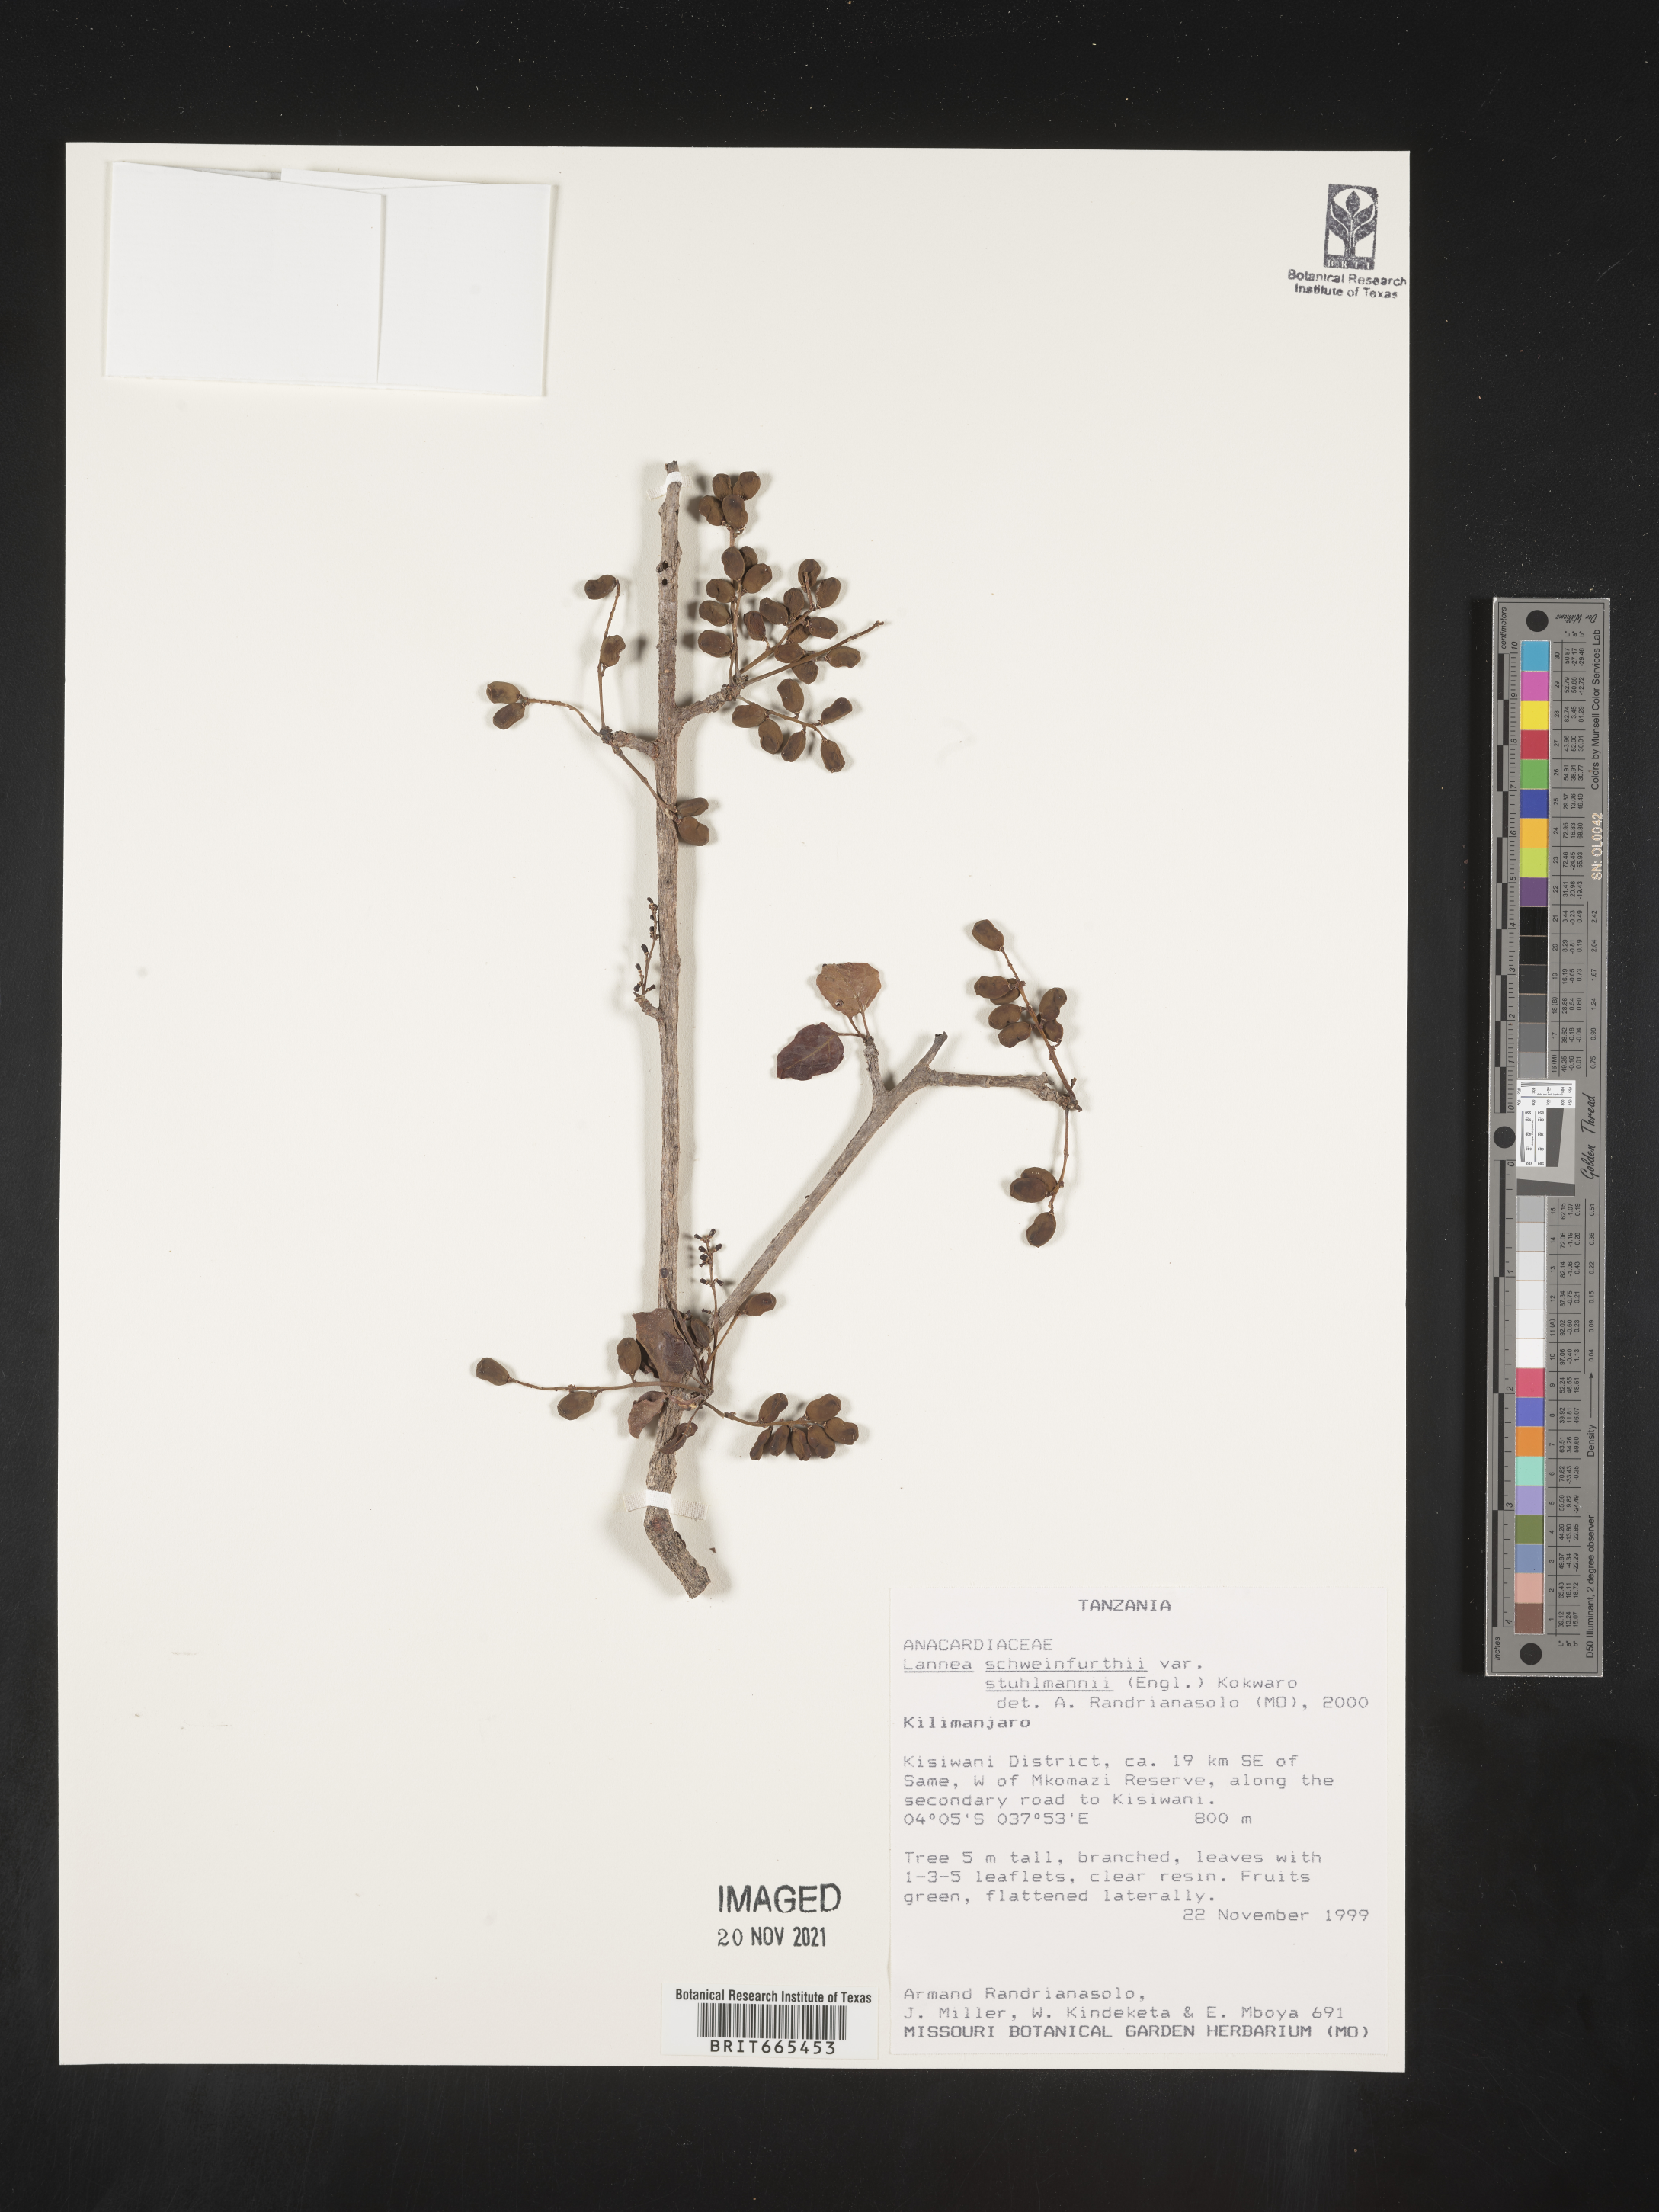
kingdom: Plantae
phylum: Tracheophyta
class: Magnoliopsida
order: Sapindales
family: Anacardiaceae
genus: Lannea
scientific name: Lannea schweinfurthii
